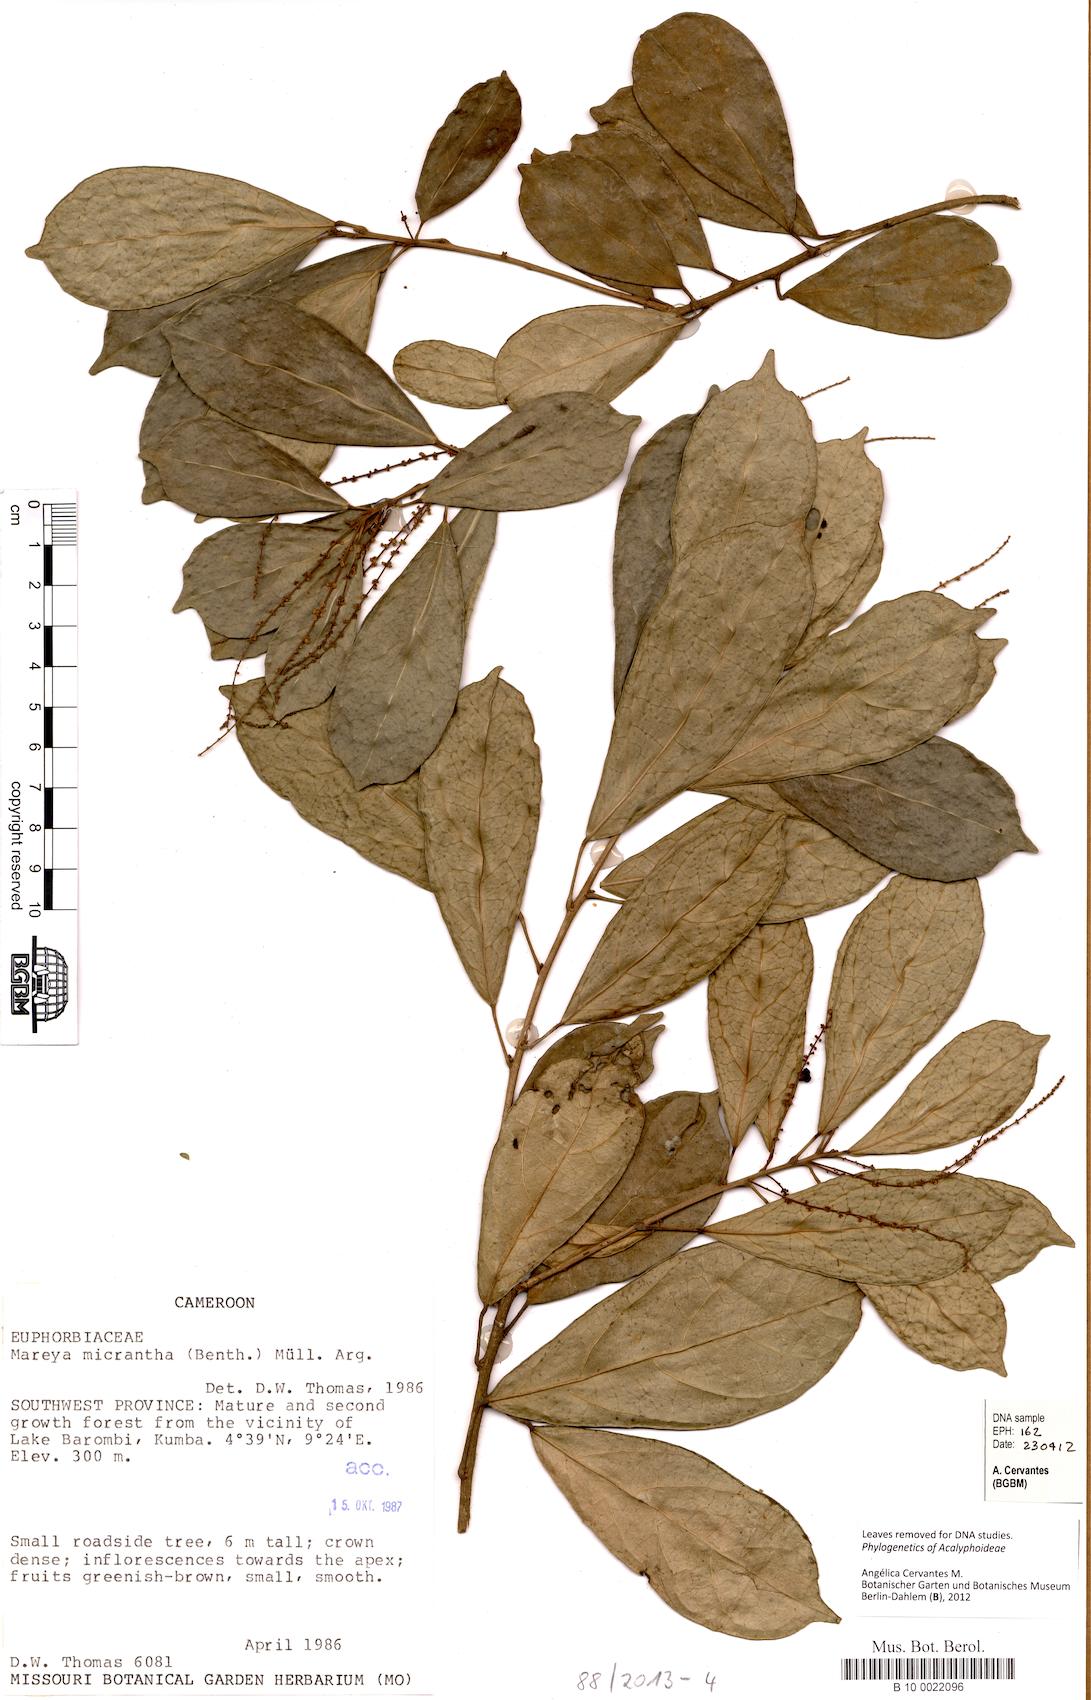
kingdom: Plantae
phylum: Tracheophyta
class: Magnoliopsida
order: Malpighiales
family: Euphorbiaceae
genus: Mareya
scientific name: Mareya micrantha
